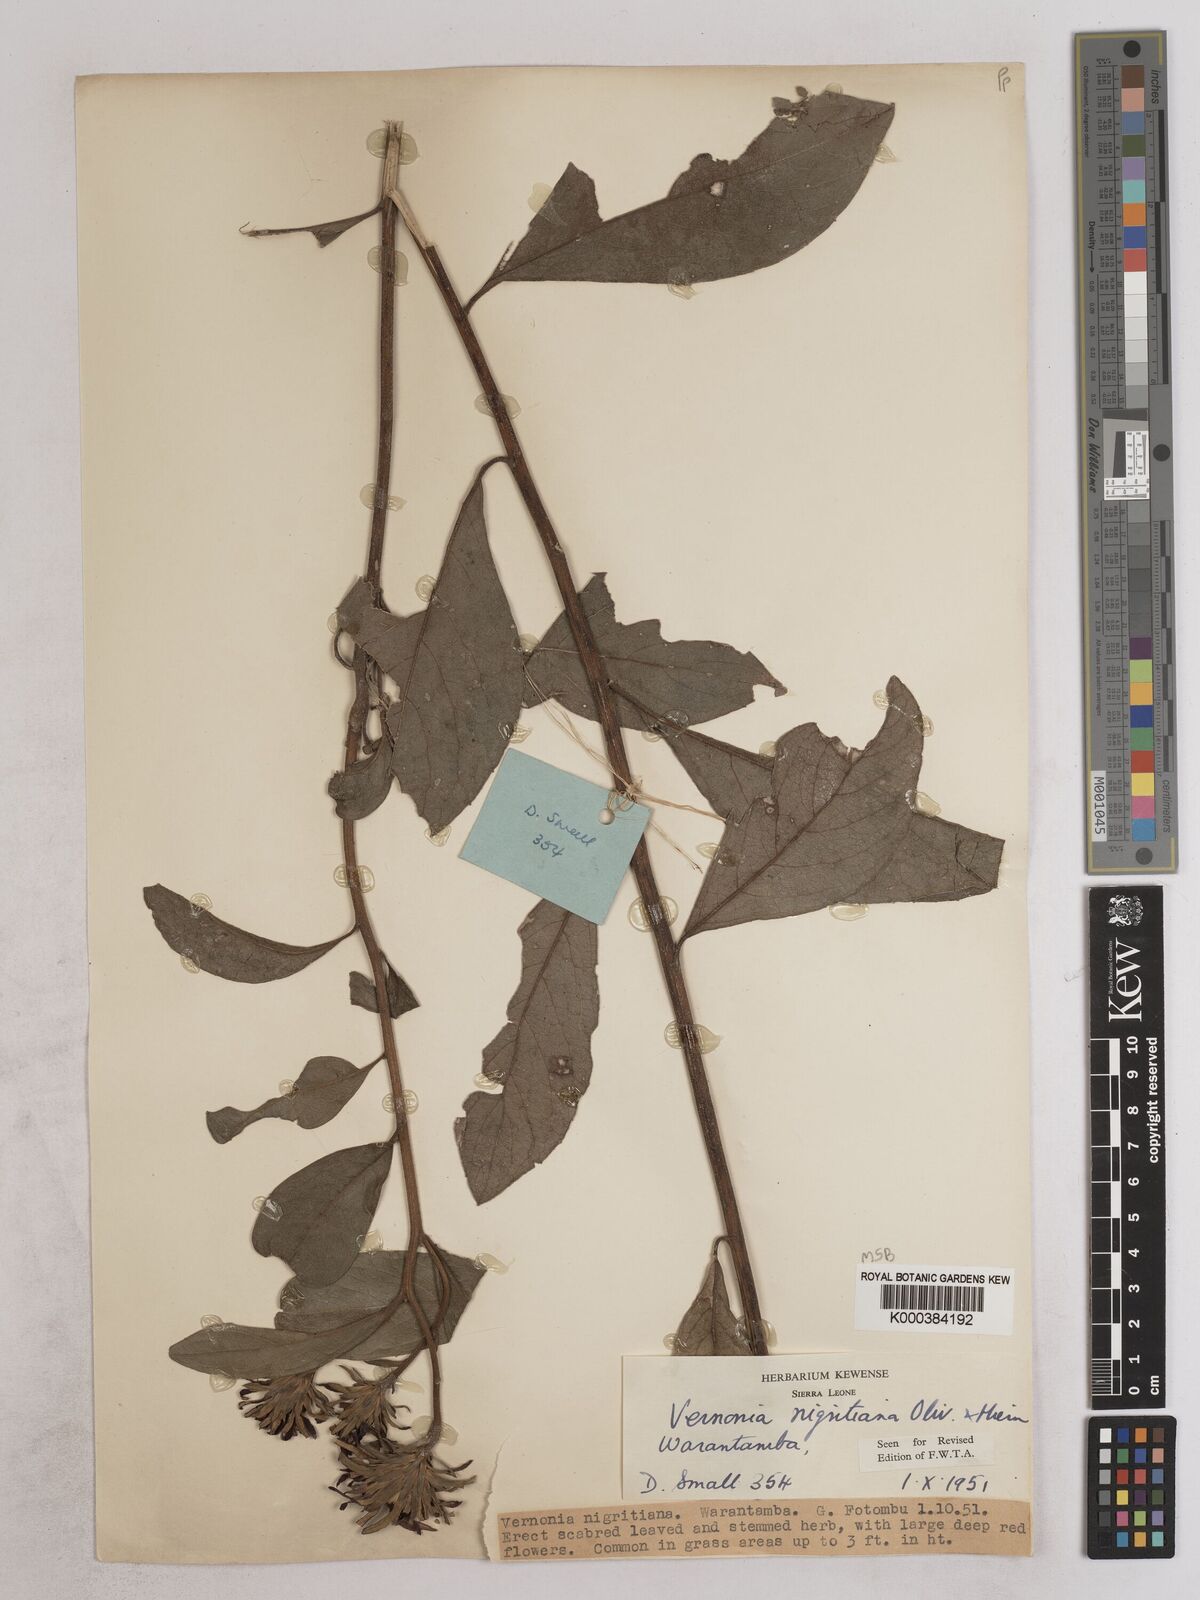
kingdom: Plantae
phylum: Tracheophyta
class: Magnoliopsida
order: Asterales
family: Asteraceae
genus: Linzia
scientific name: Linzia nigritiana
